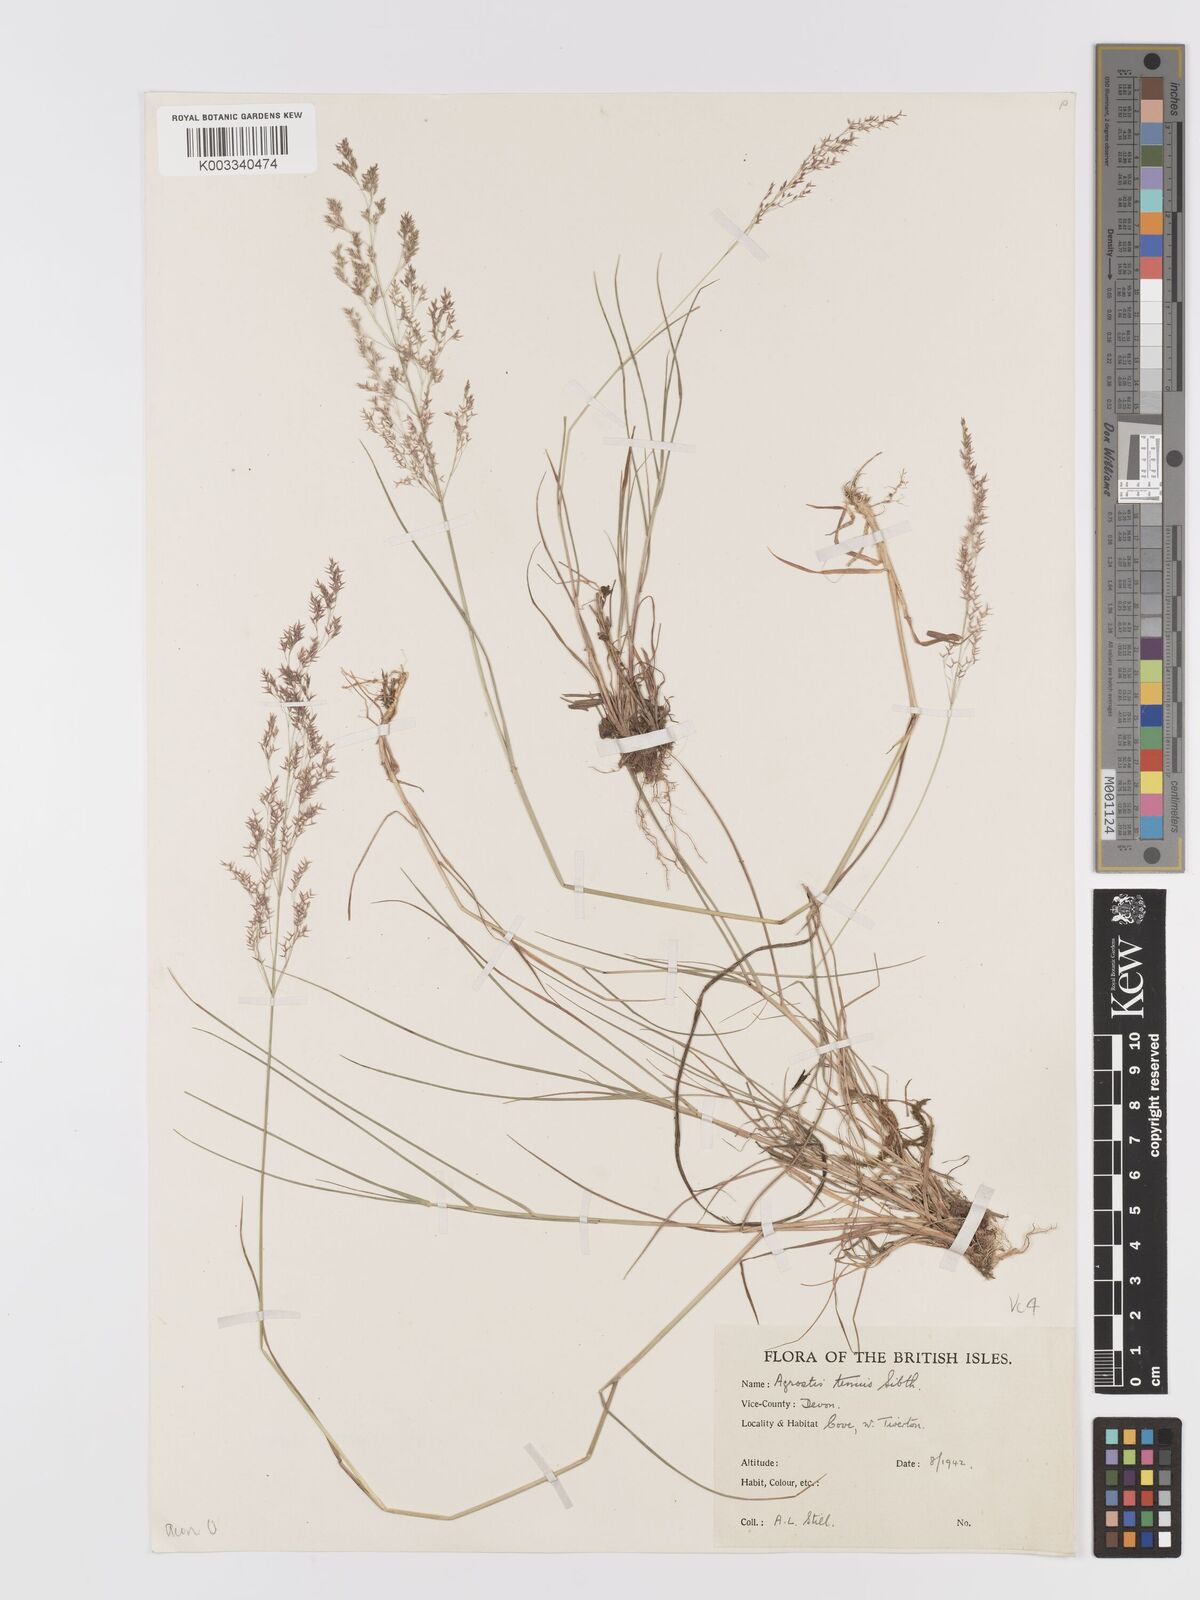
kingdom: Plantae
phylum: Tracheophyta
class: Liliopsida
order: Poales
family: Poaceae
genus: Agrostis
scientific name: Agrostis capillaris
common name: Colonial bentgrass
